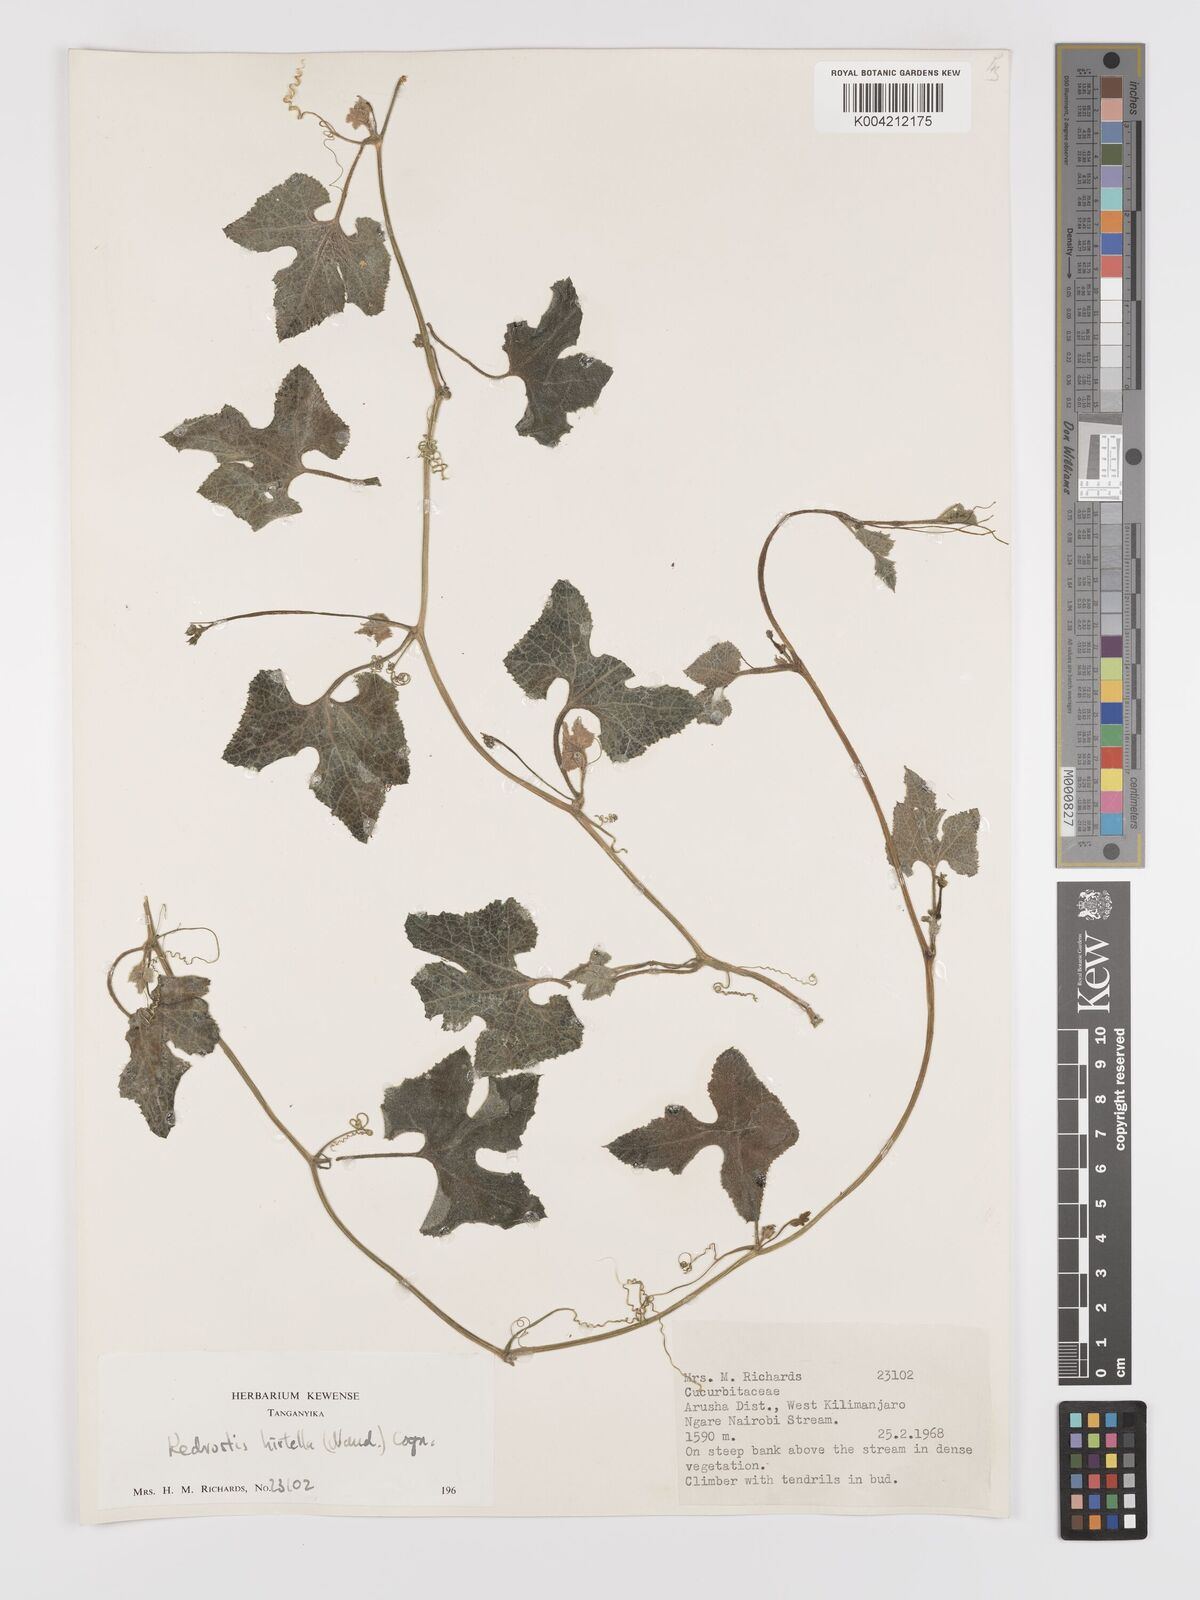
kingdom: Plantae
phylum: Tracheophyta
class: Magnoliopsida
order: Cucurbitales
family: Cucurbitaceae
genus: Kedrostis
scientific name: Kedrostis leloja
